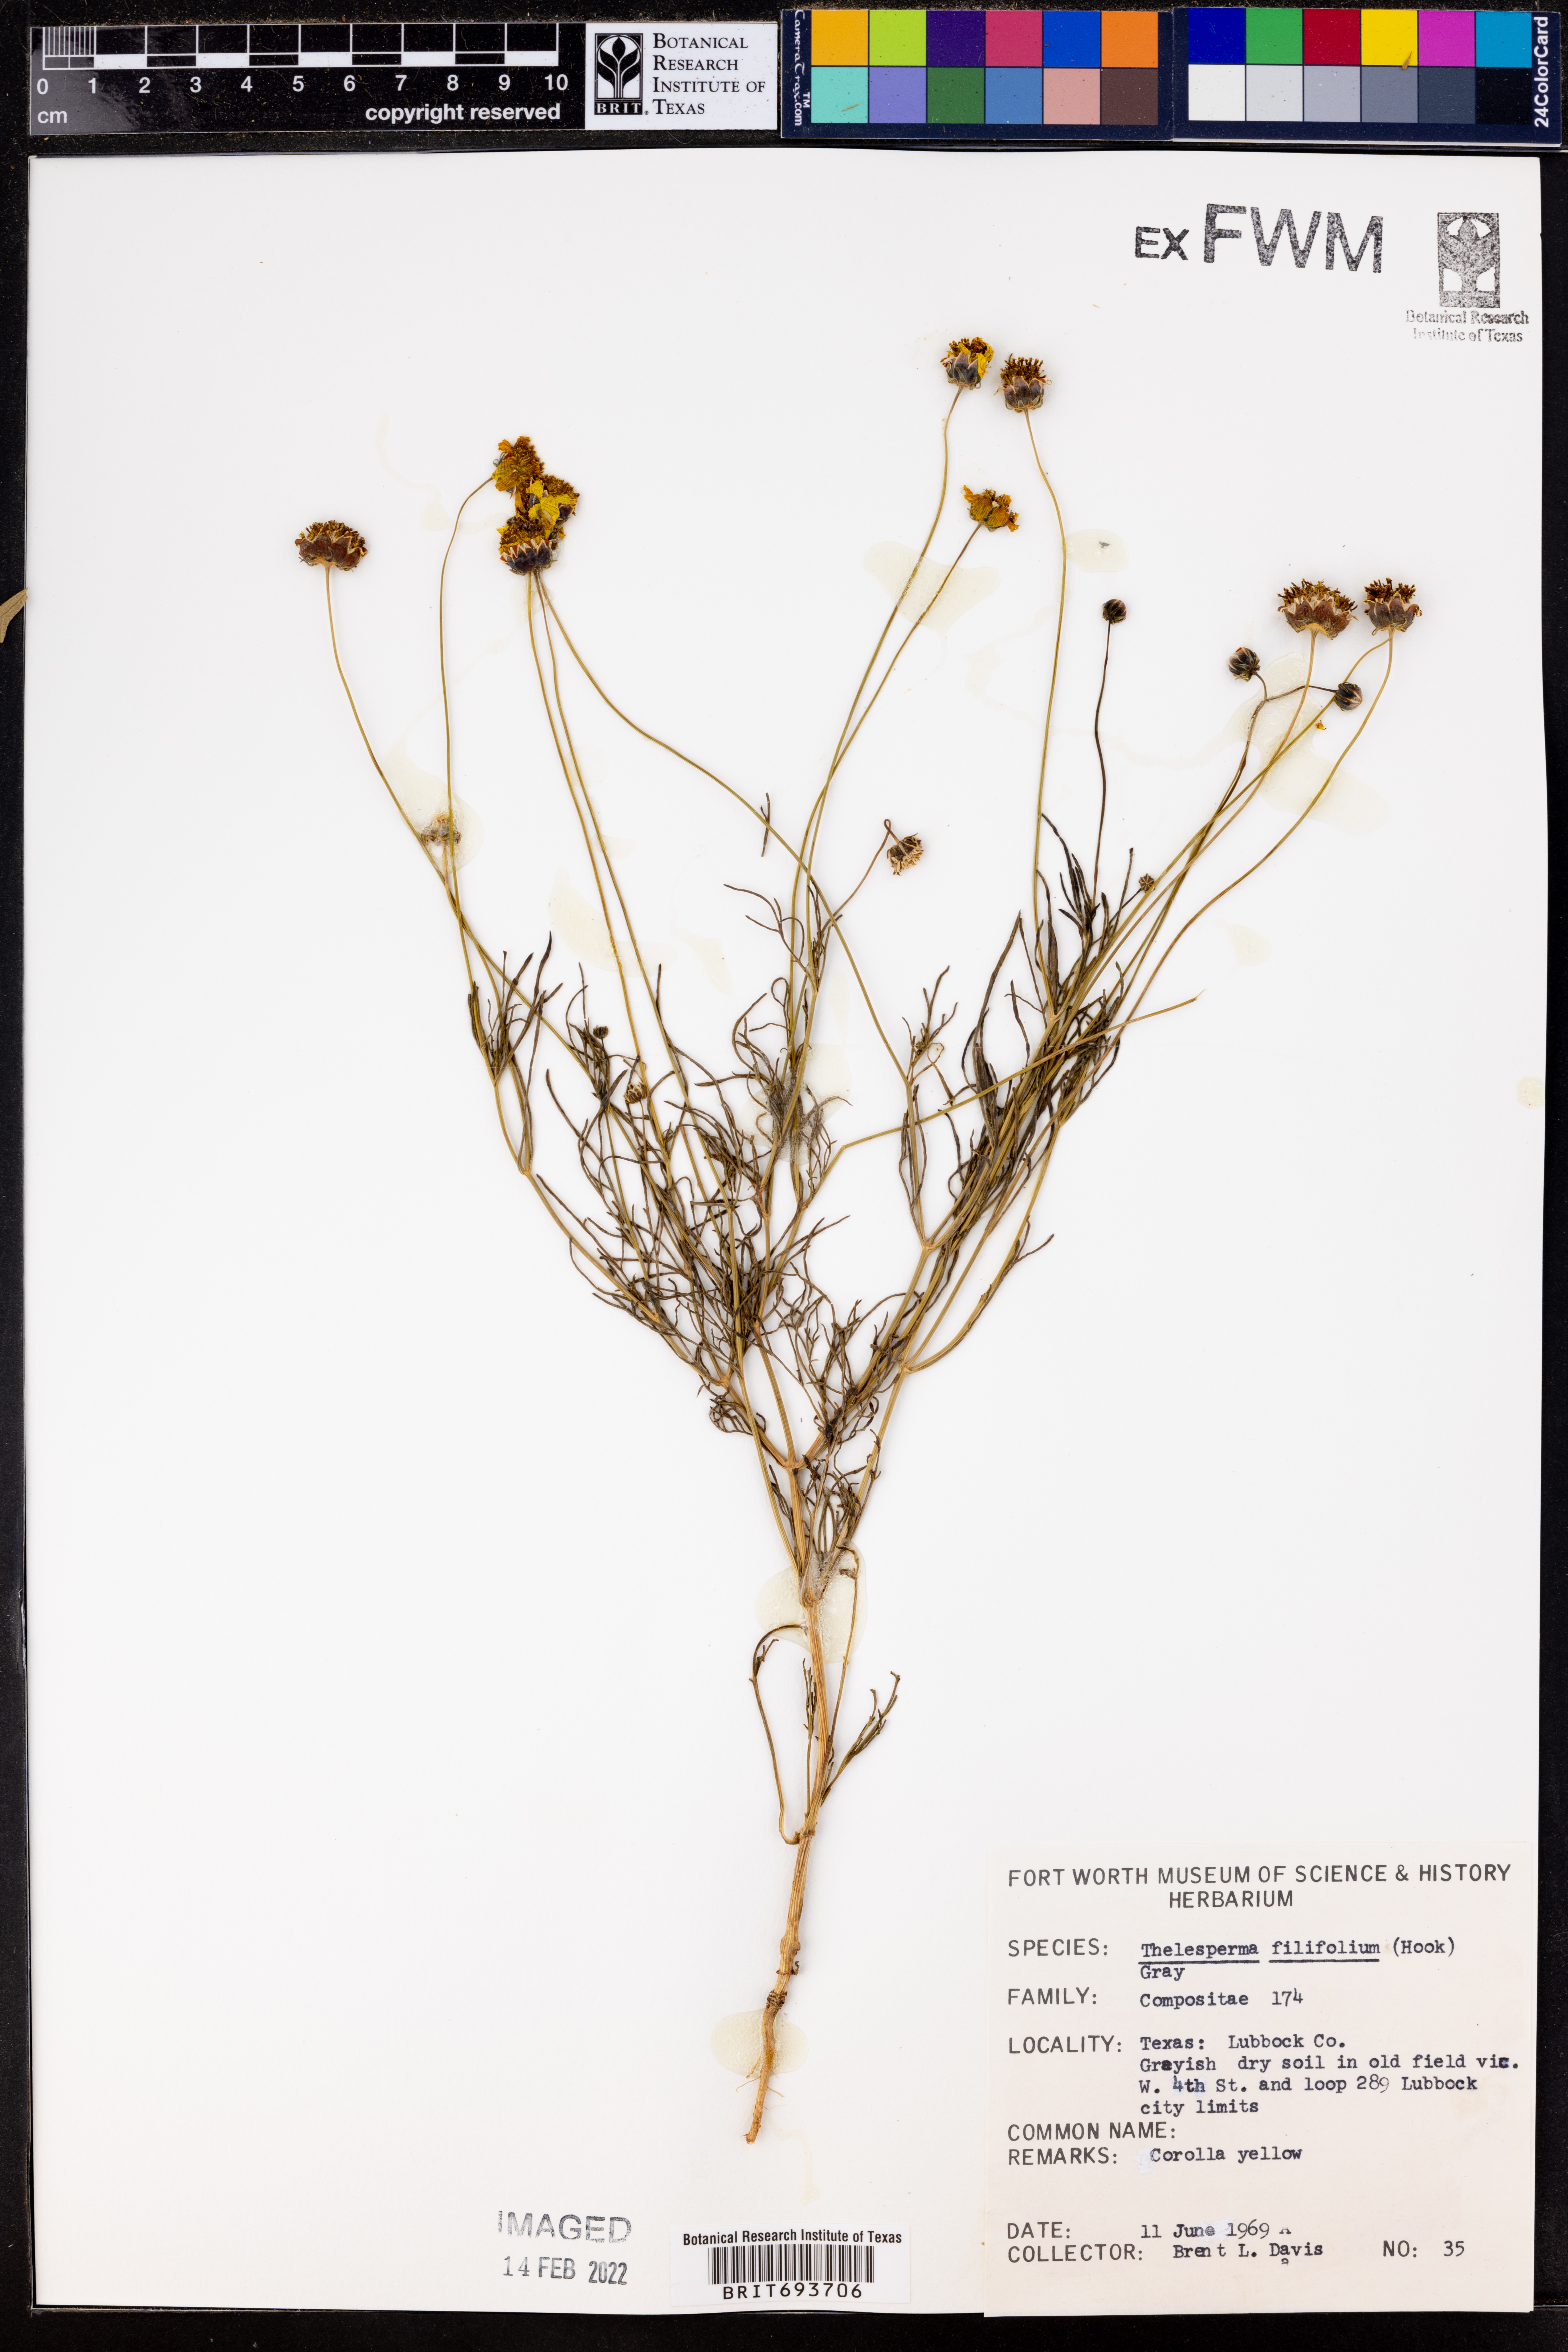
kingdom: Plantae
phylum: Tracheophyta
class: Magnoliopsida
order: Asterales
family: Asteraceae
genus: Thelesperma
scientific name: Thelesperma filifolium
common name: Stiff greenthread
